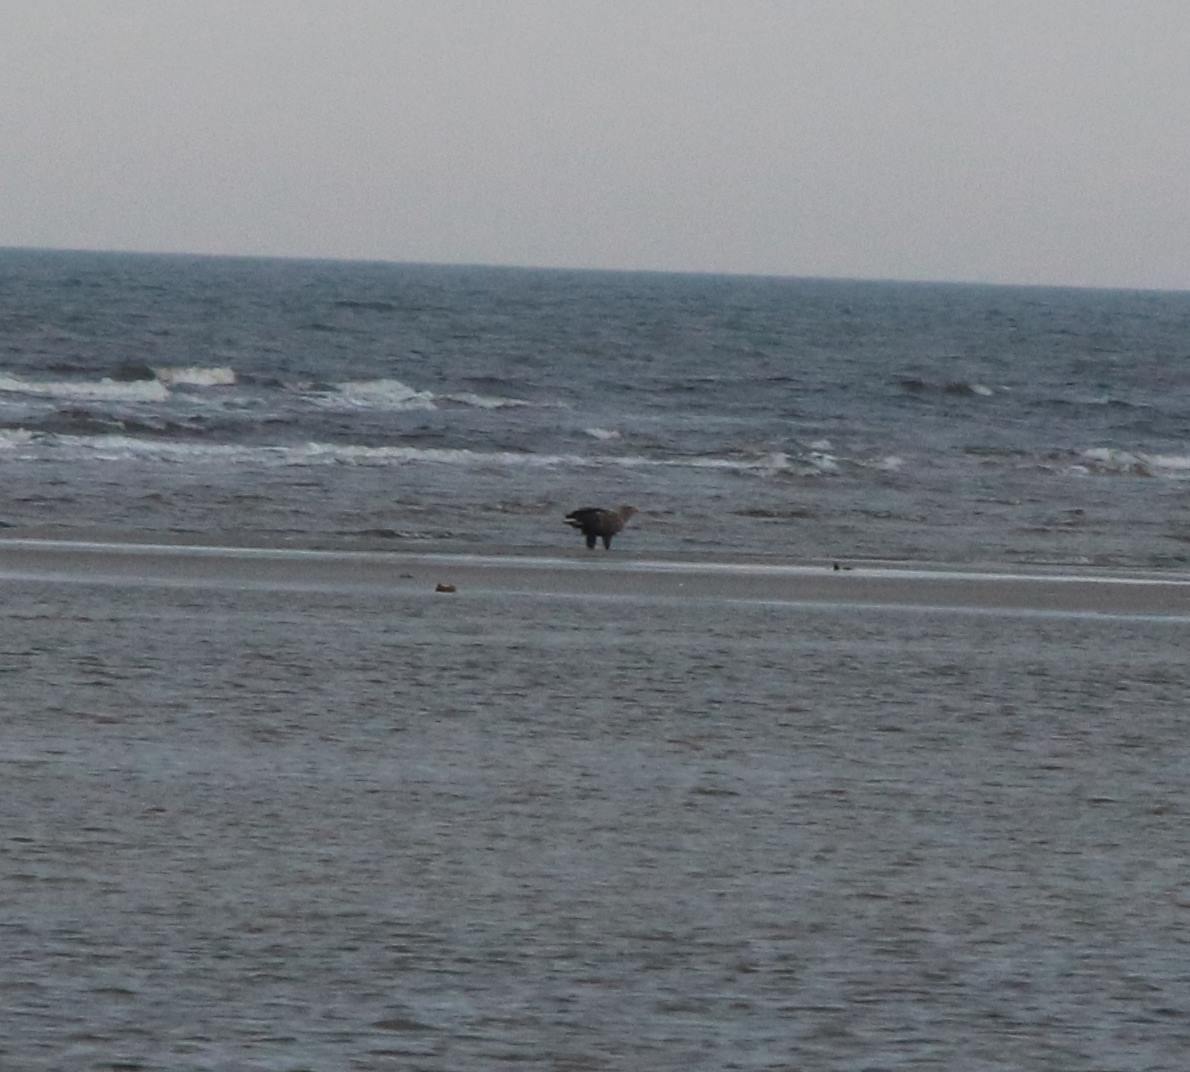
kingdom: Animalia
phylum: Chordata
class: Aves
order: Accipitriformes
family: Accipitridae
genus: Haliaeetus
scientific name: Haliaeetus albicilla
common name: Havørn
